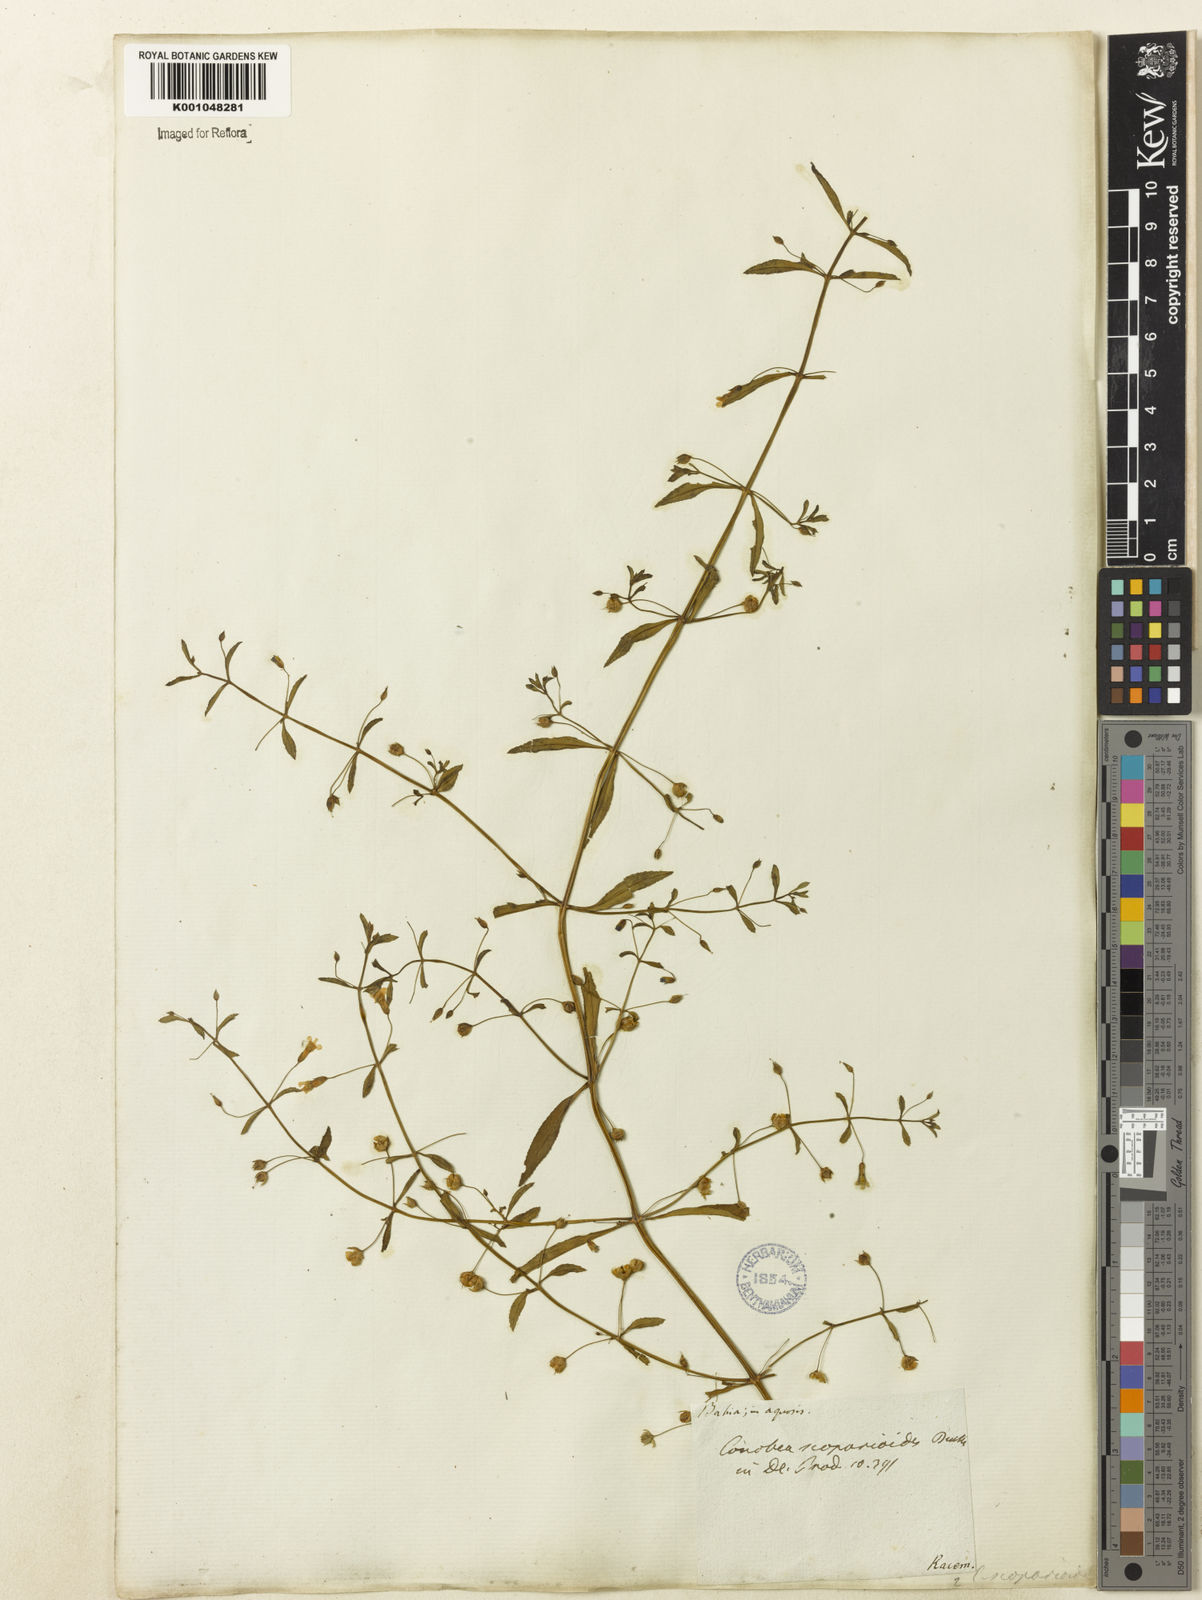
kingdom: Plantae
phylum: Tracheophyta
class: Magnoliopsida
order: Lamiales
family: Plantaginaceae
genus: Conobea
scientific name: Conobea scoparioides
